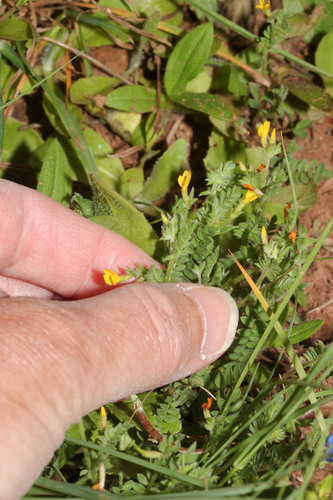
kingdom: Plantae
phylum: Tracheophyta
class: Magnoliopsida
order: Fabales
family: Fabaceae
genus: Ornithopus
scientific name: Ornithopus compressus
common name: Yellow serradella
